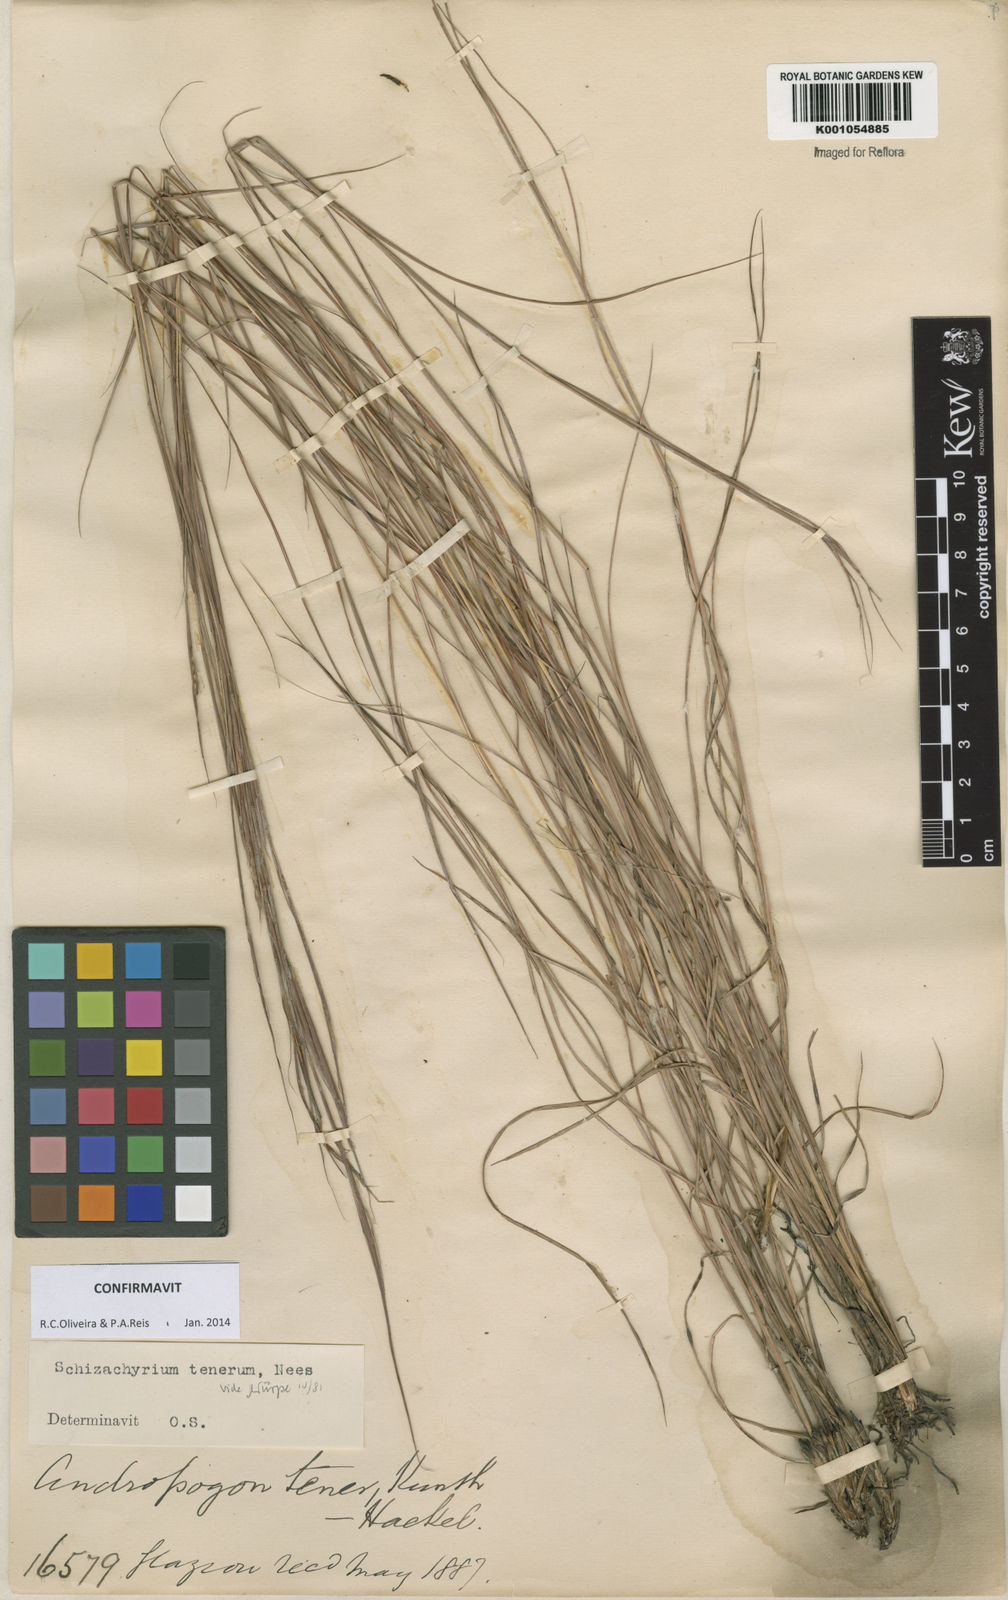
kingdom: Plantae
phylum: Tracheophyta
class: Liliopsida
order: Poales
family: Poaceae
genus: Andropogon
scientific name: Andropogon tener
